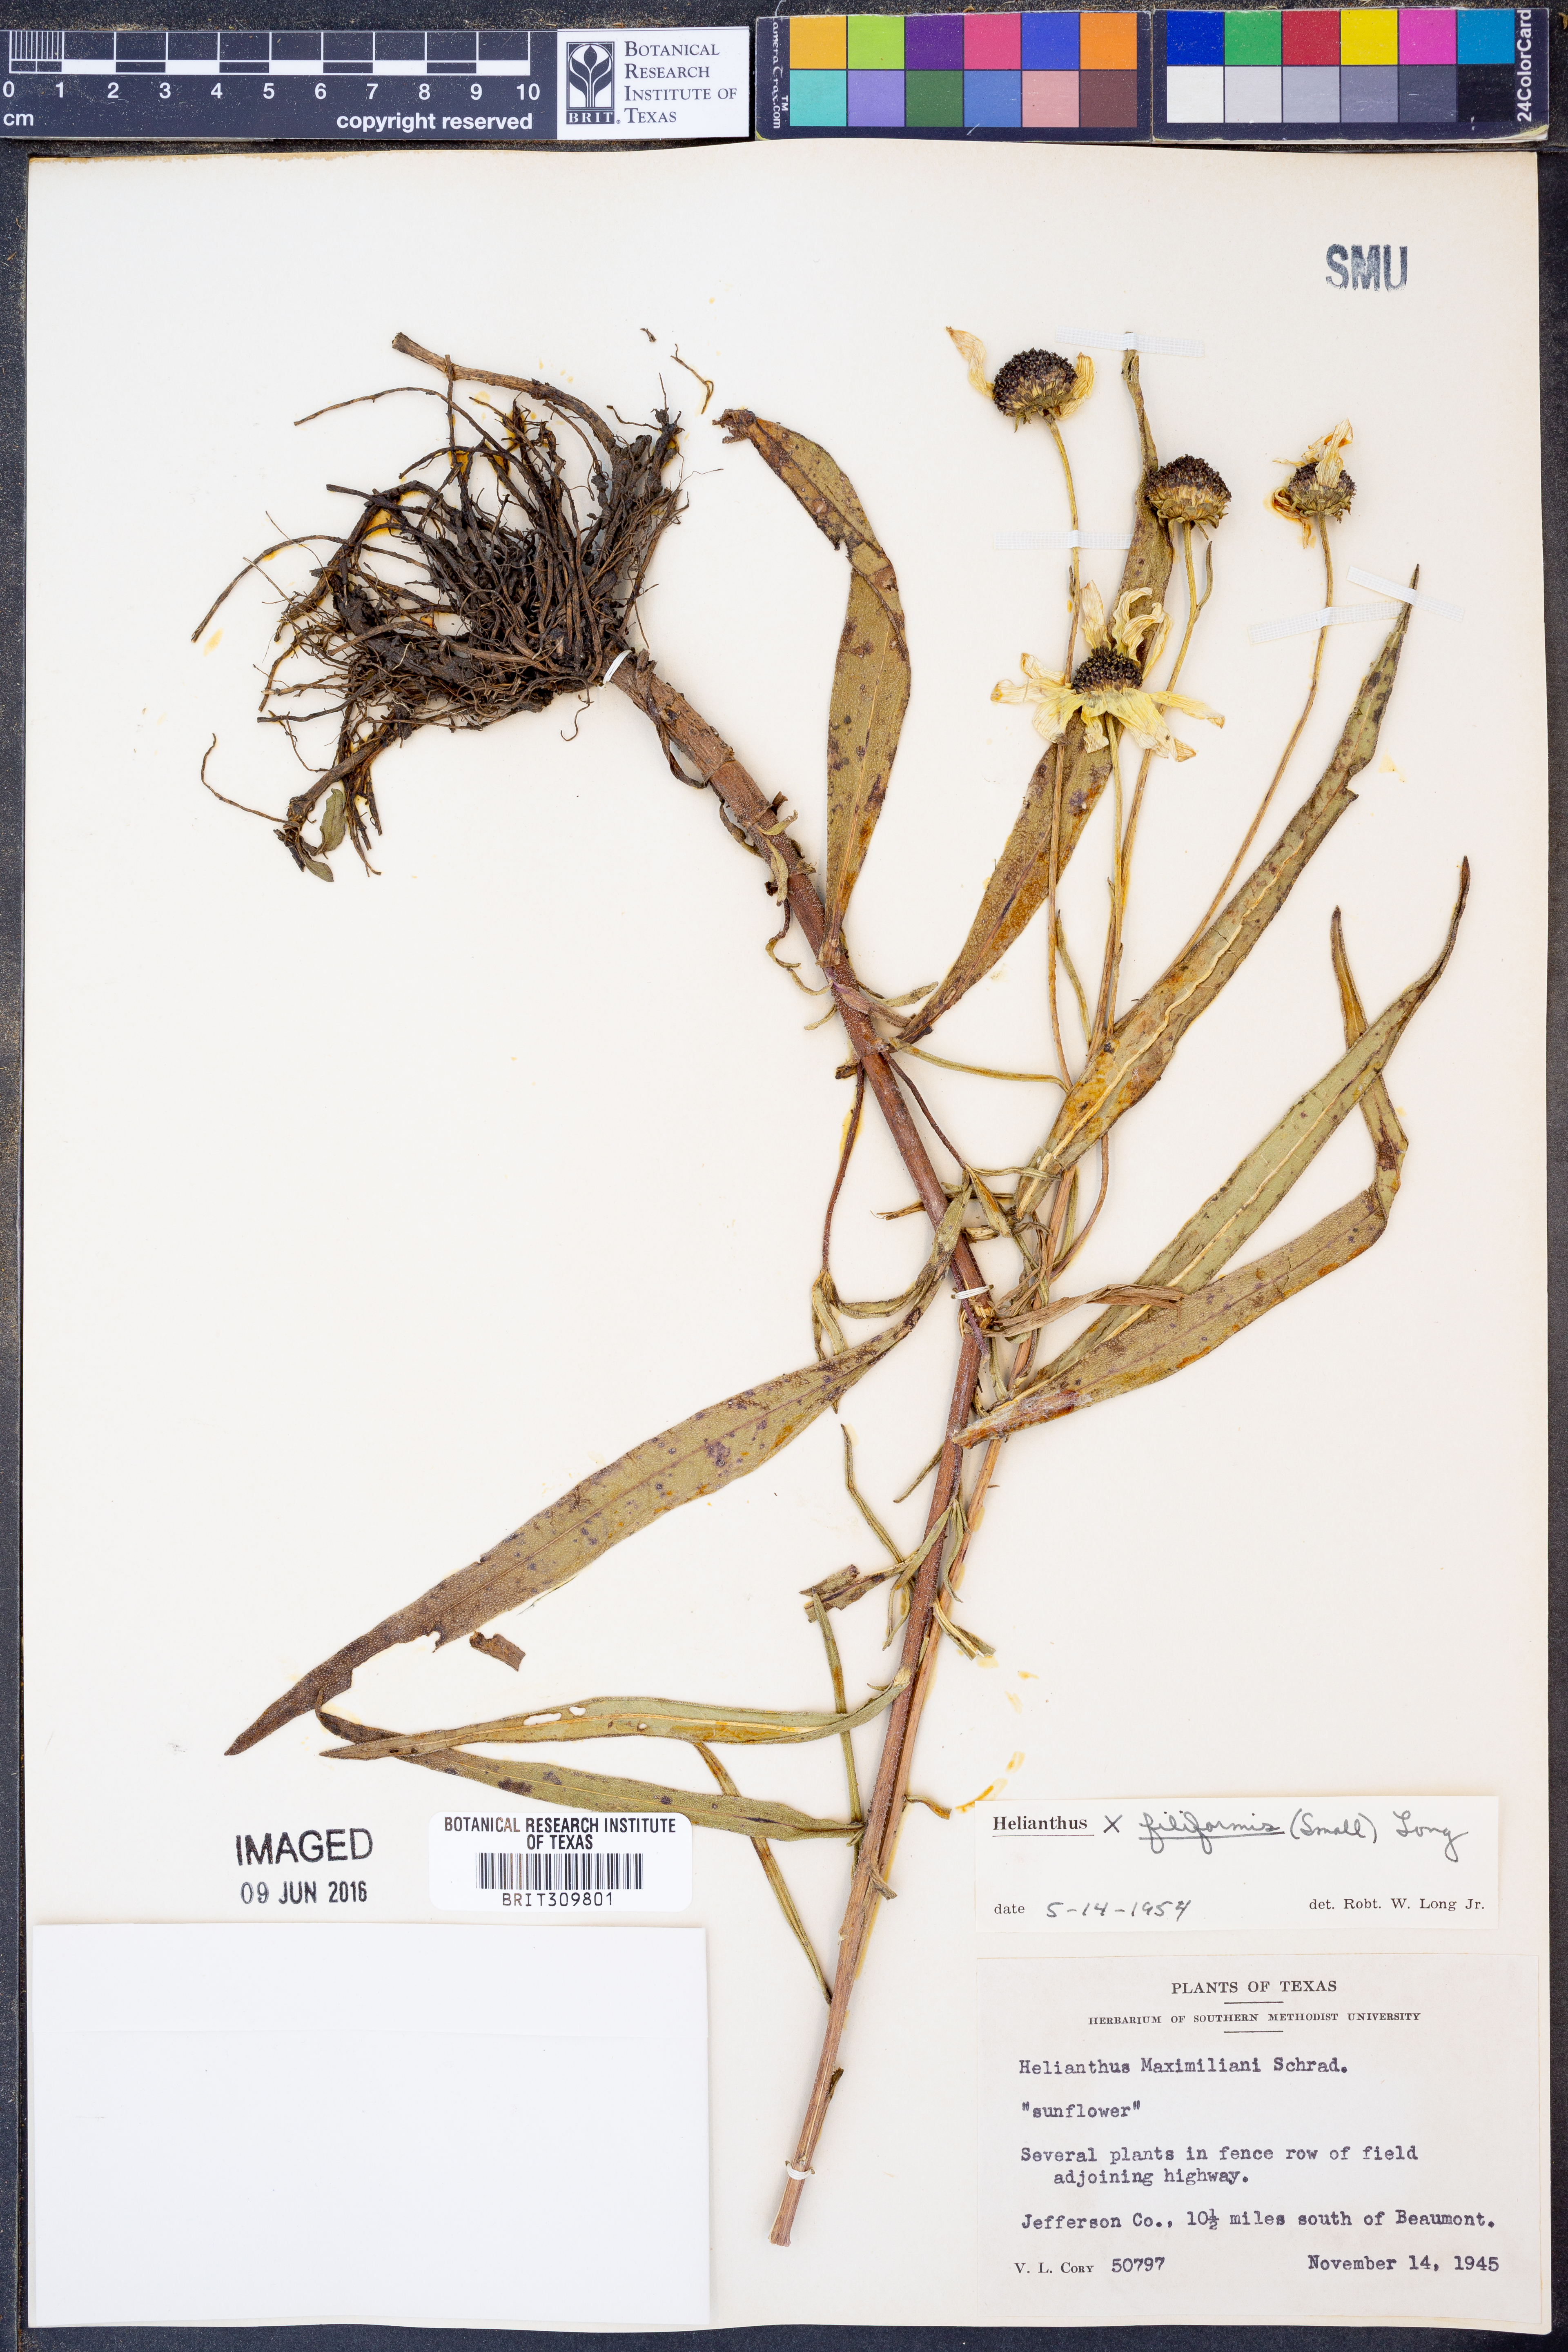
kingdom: Plantae
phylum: Tracheophyta
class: Magnoliopsida
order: Asterales
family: Asteraceae
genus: Helianthus
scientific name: Helianthus salicifolius
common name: Willowleaf sunflower
